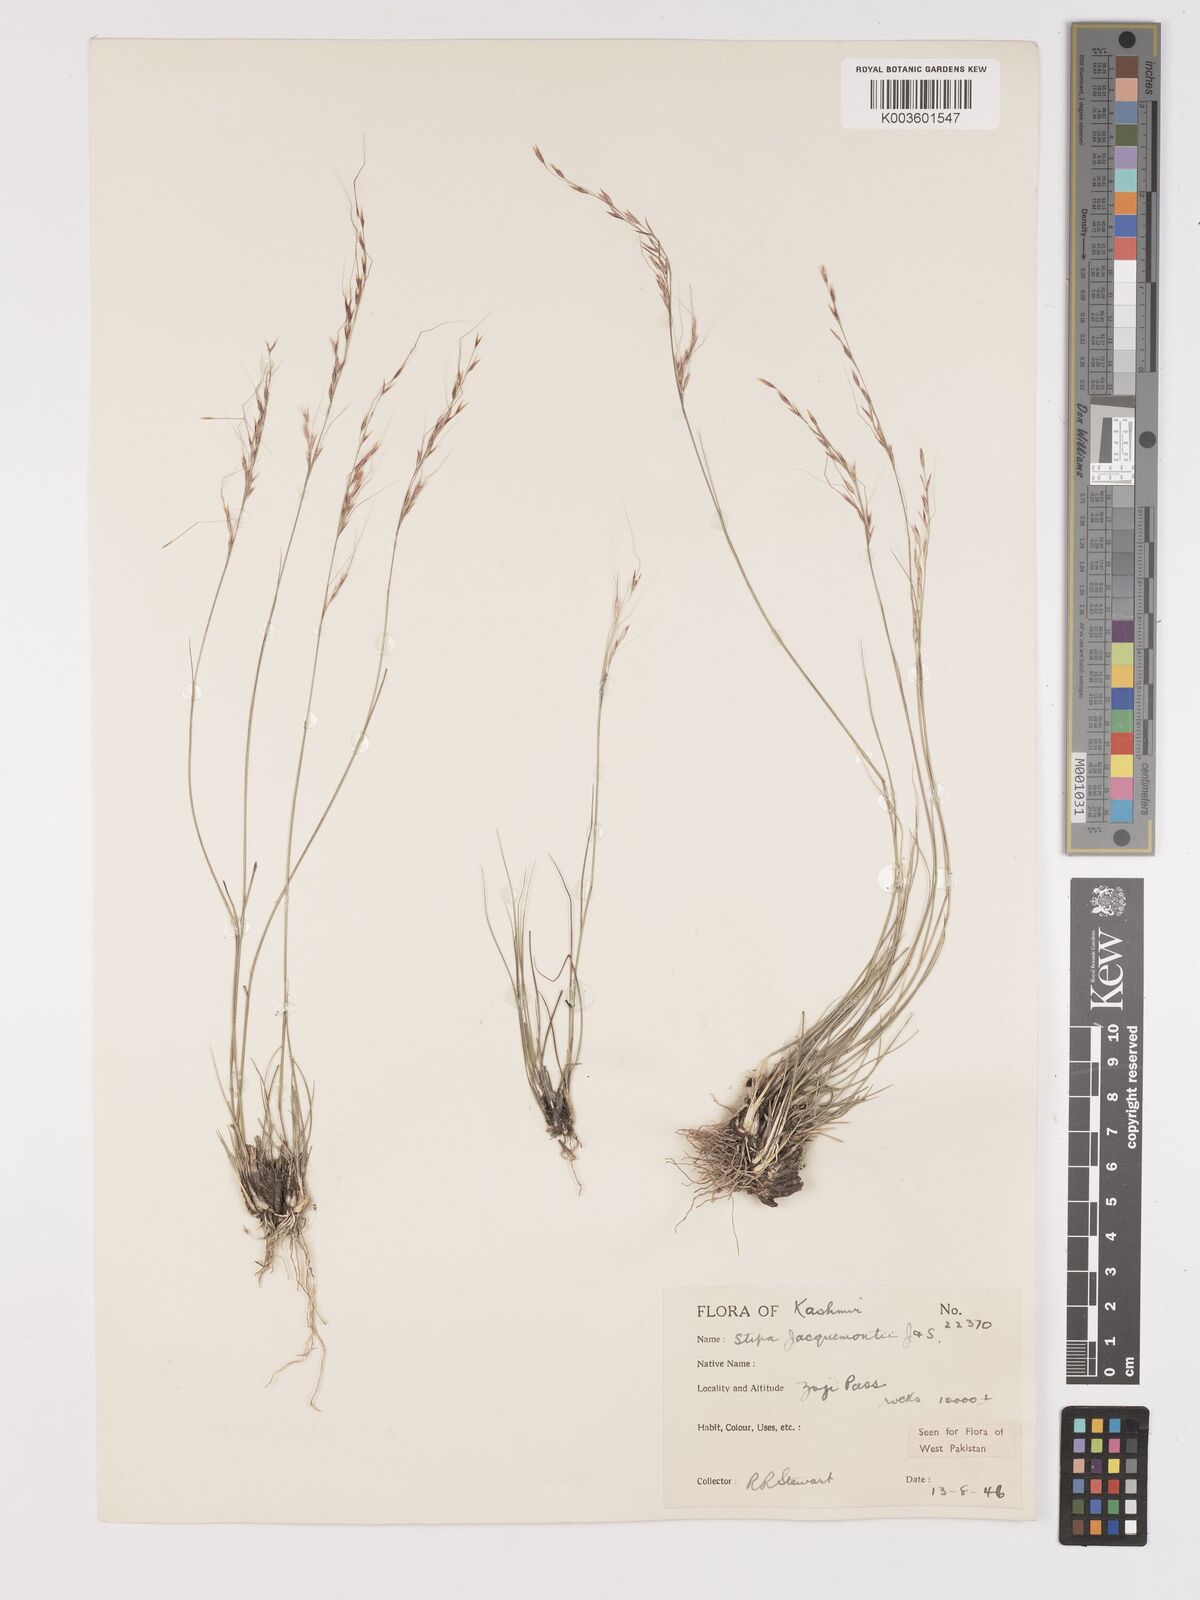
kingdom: Plantae
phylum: Tracheophyta
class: Liliopsida
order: Poales
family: Poaceae
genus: Achnatherum
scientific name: Achnatherum jacquemontii
